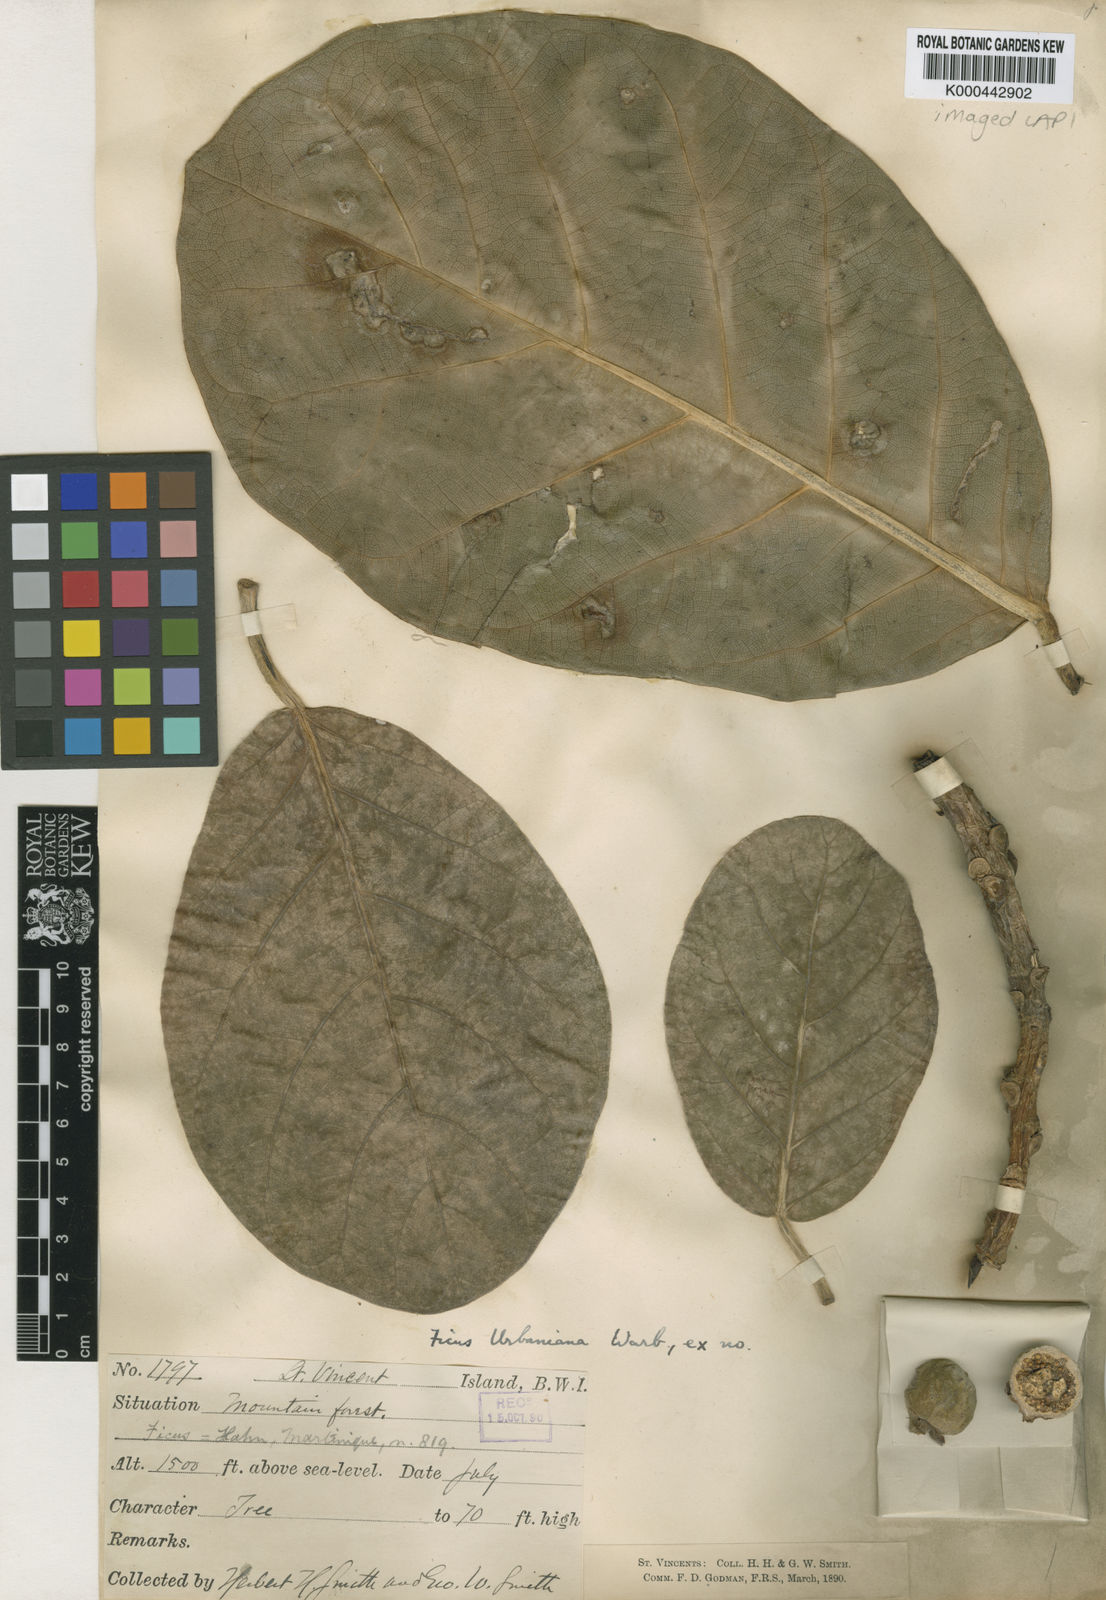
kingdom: Plantae
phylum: Tracheophyta
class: Magnoliopsida
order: Rosales
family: Moraceae
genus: Ficus
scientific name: Ficus nymphaeifolia
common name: Fig
